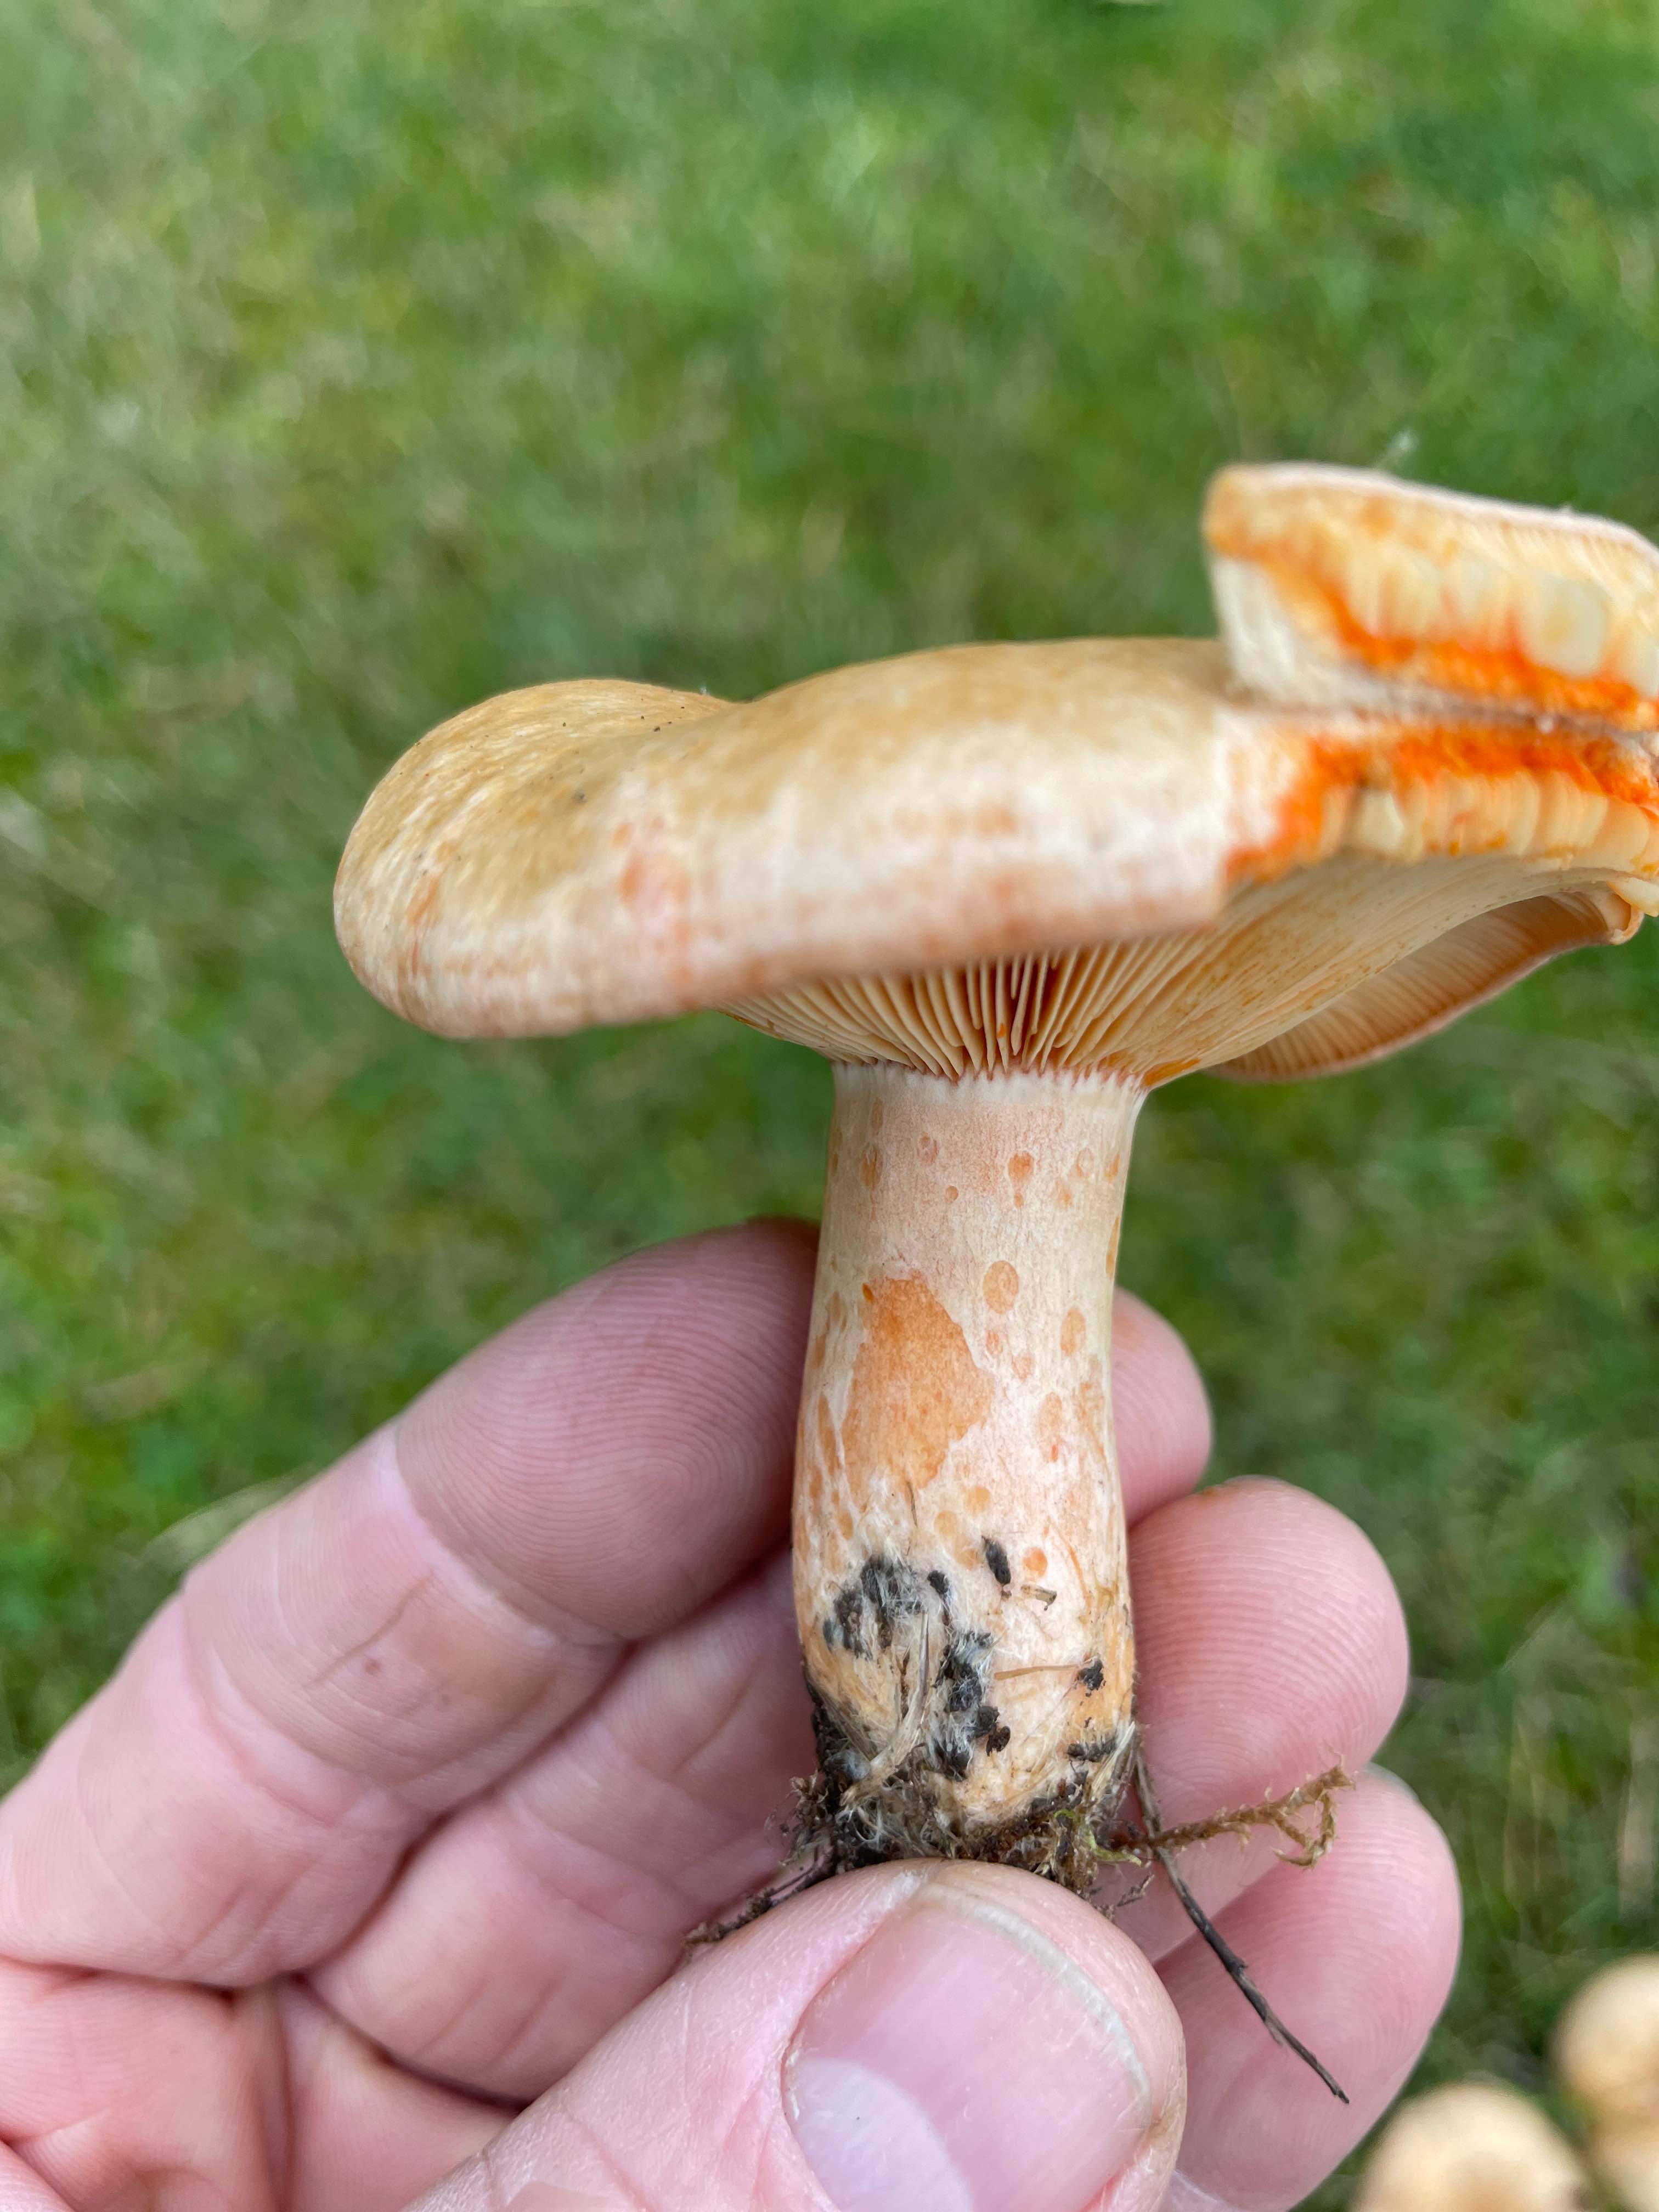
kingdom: Fungi
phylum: Basidiomycota
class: Agaricomycetes
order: Russulales
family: Russulaceae
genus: Lactarius
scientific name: Lactarius deliciosus
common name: velsmagende mælkehat
